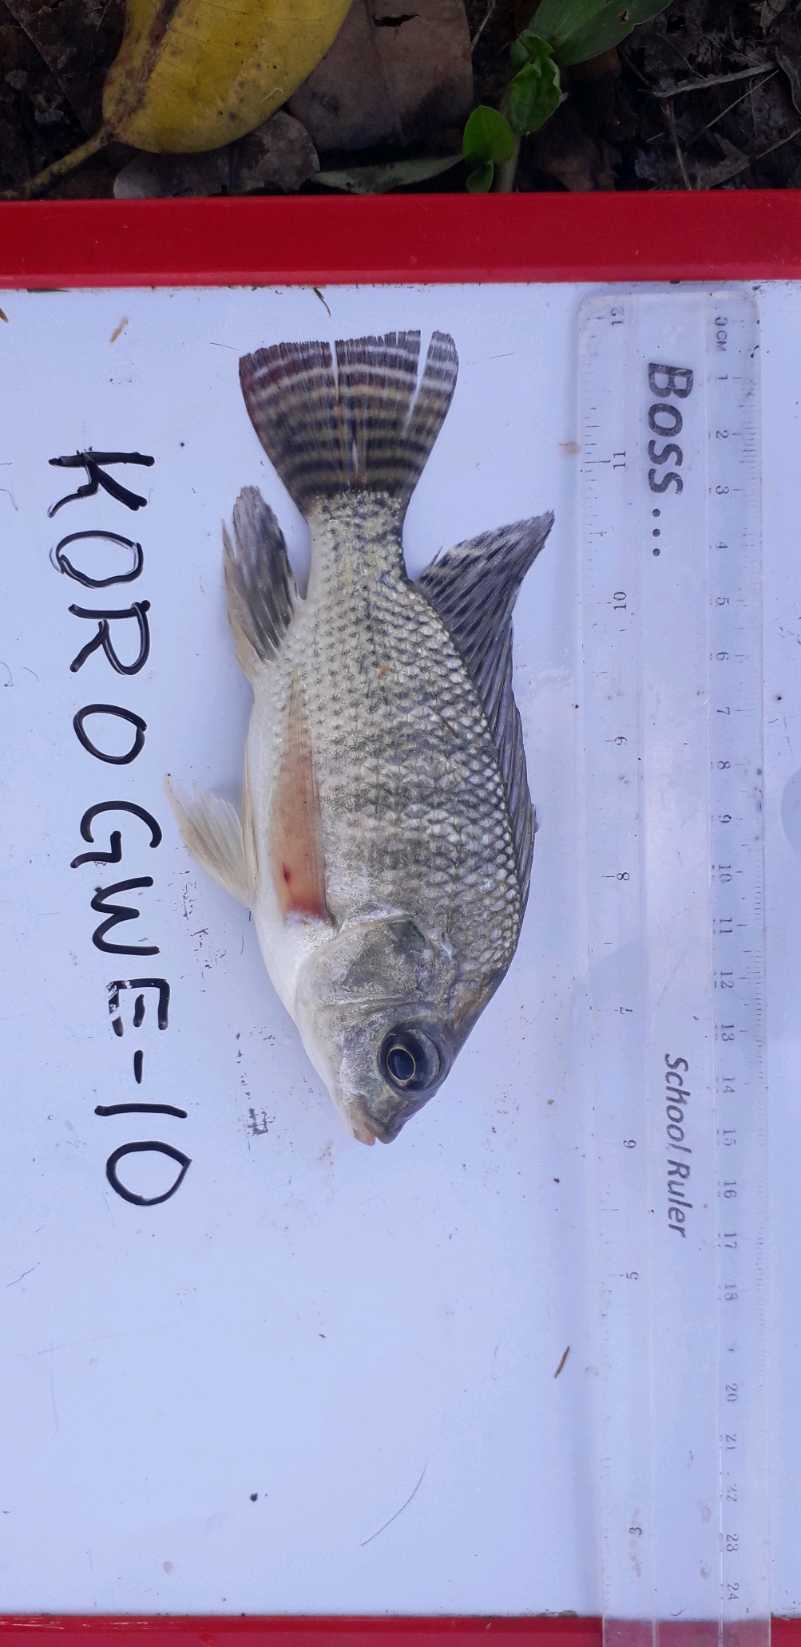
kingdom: Animalia
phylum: Chordata
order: Perciformes
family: Cichlidae
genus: Oreochromis
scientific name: Oreochromis niloticus
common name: Nile tilapia
